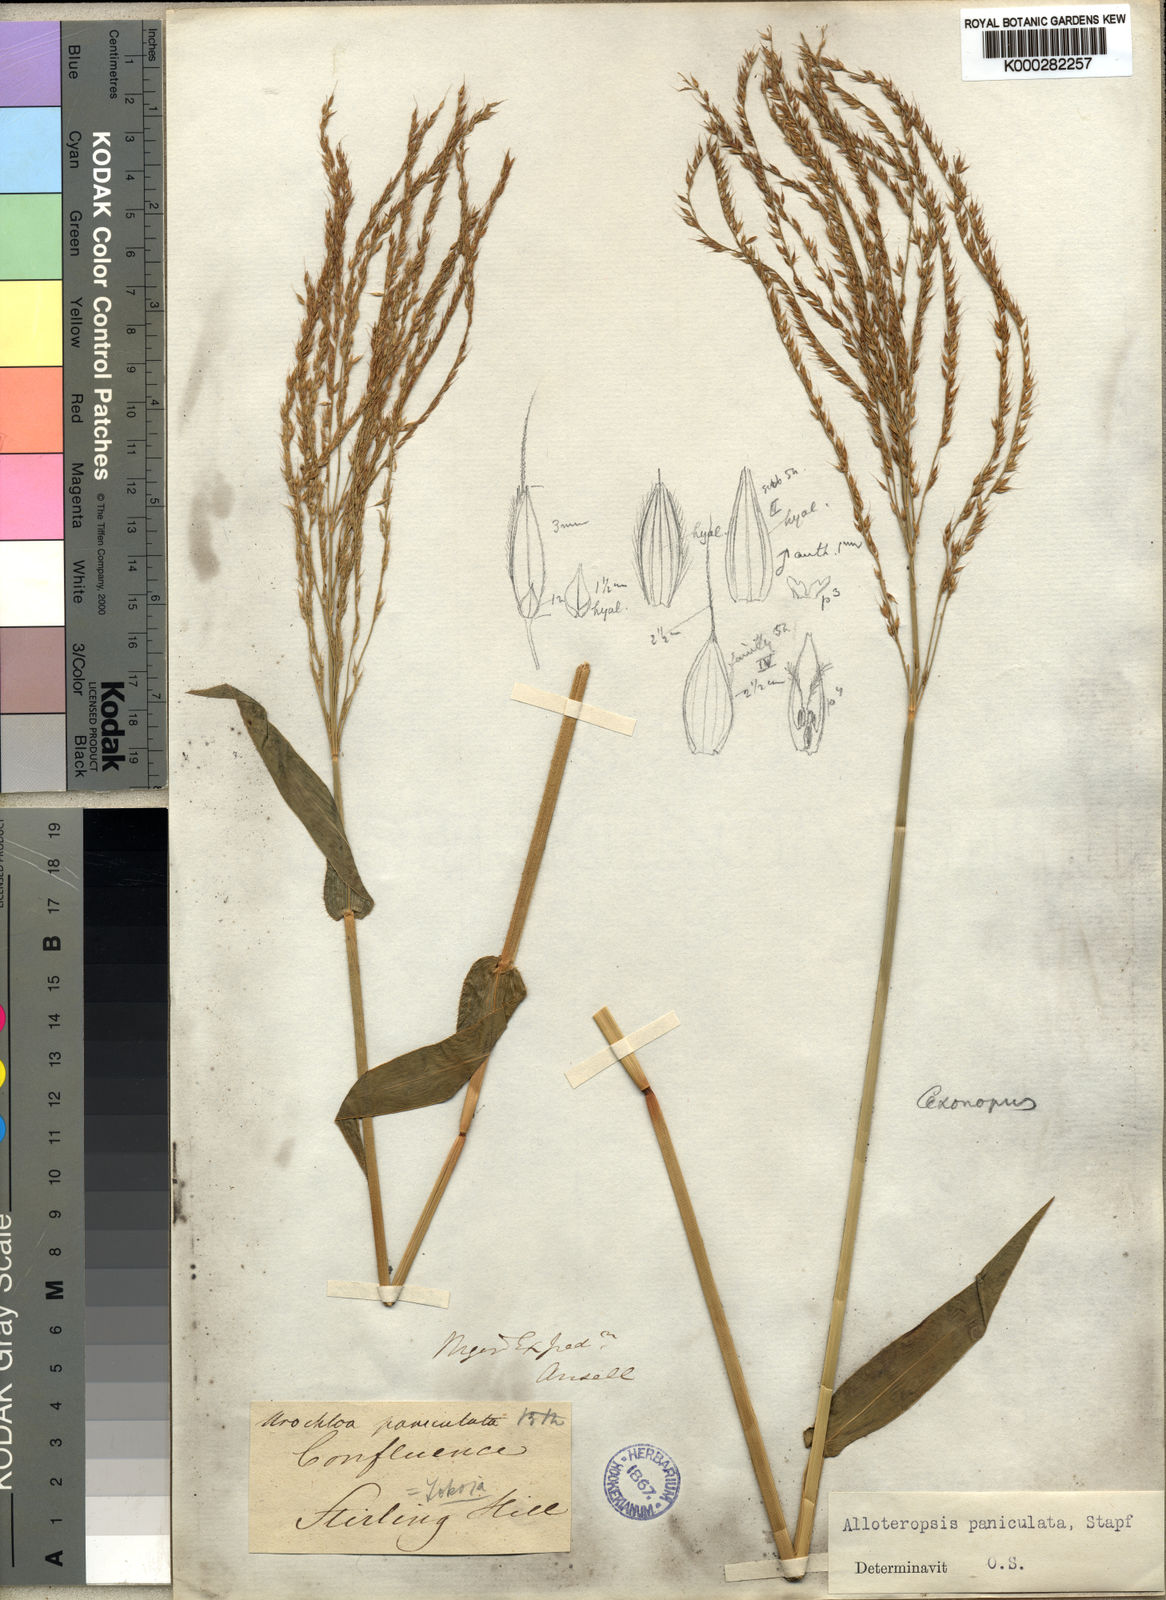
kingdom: Plantae
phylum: Tracheophyta
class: Liliopsida
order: Poales
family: Poaceae
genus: Alloteropsis
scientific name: Alloteropsis paniculata
